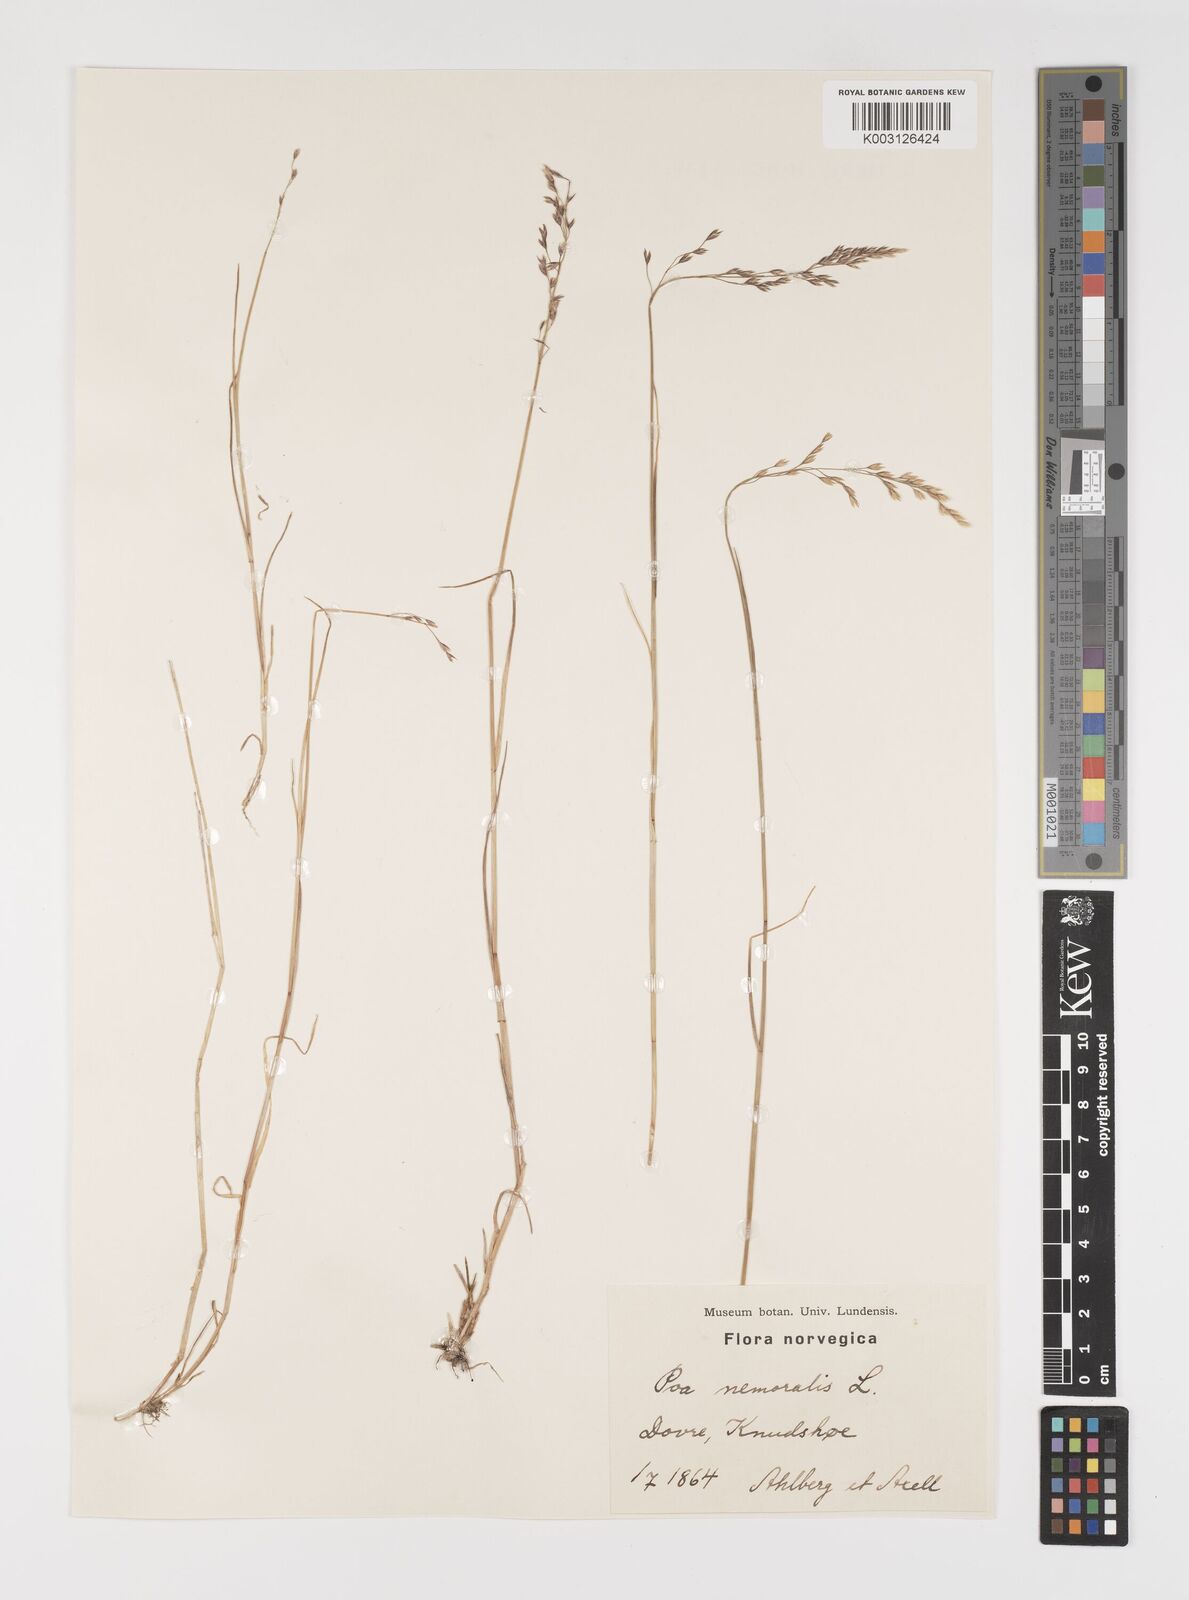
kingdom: Plantae
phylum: Tracheophyta
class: Liliopsida
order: Poales
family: Poaceae
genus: Poa
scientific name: Poa nemoralis
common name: Wood bluegrass
